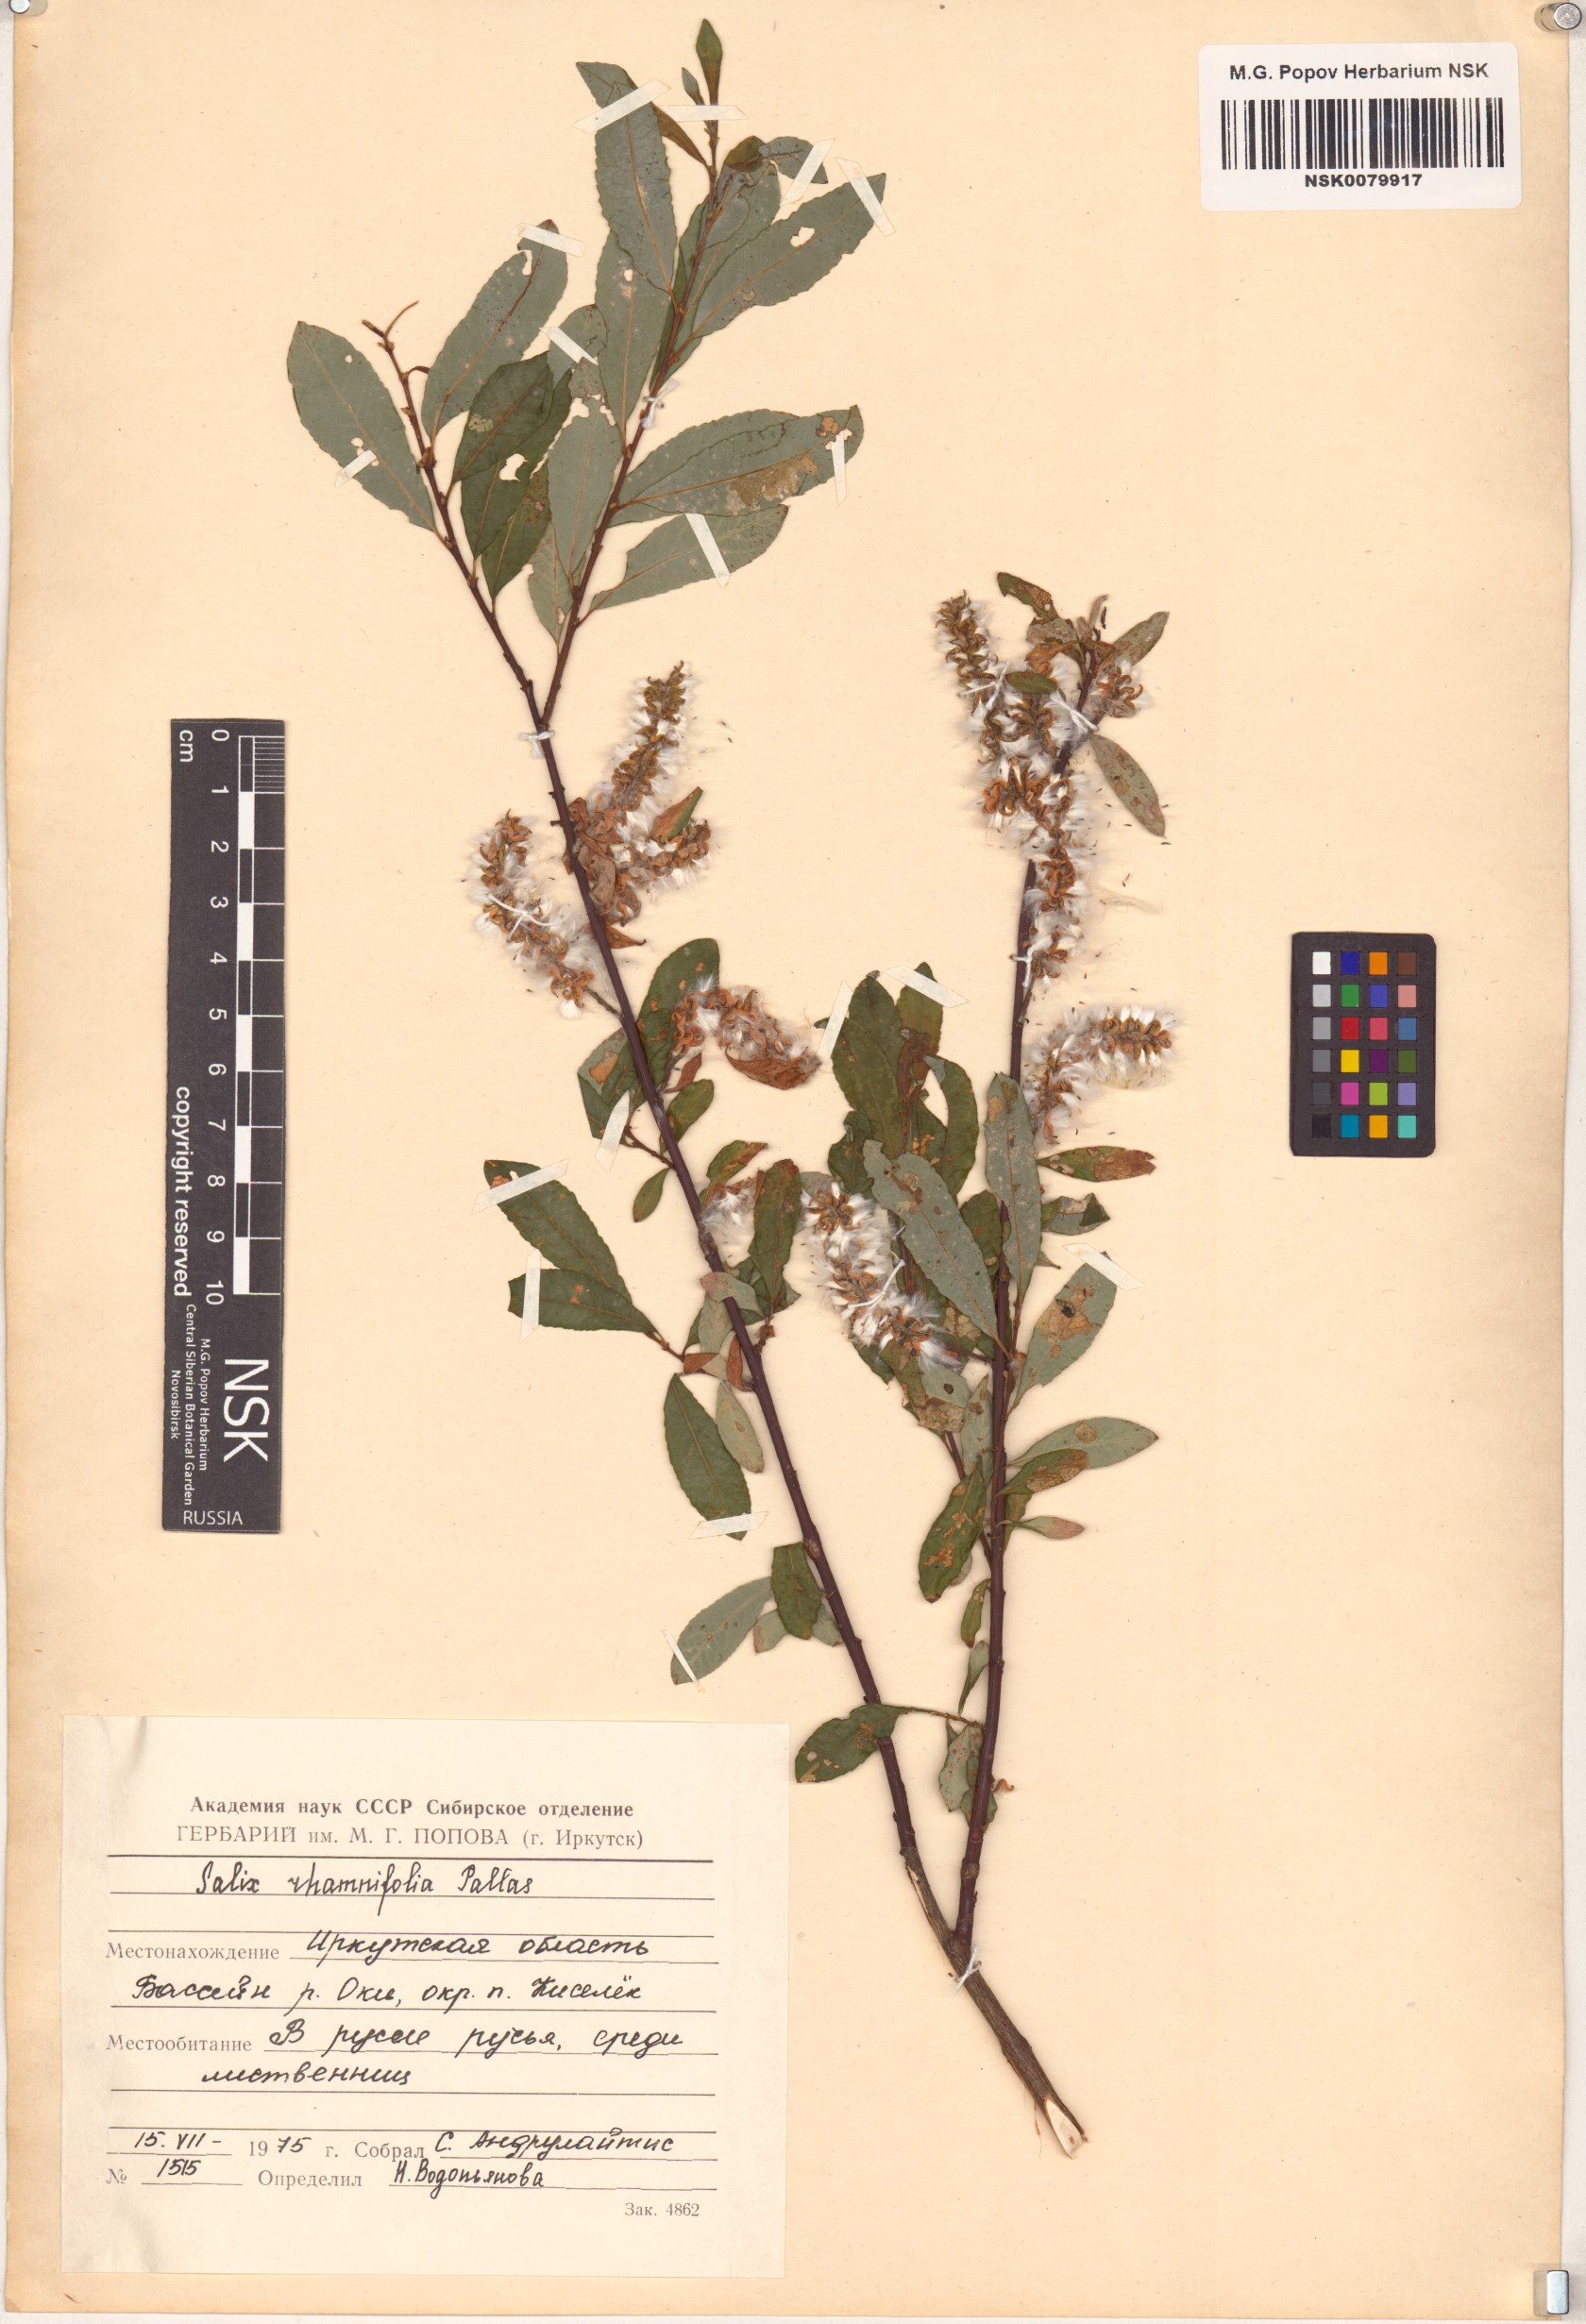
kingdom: Plantae
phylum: Tracheophyta
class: Magnoliopsida
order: Malpighiales
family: Salicaceae
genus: Salix
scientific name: Salix rhamnifolia
